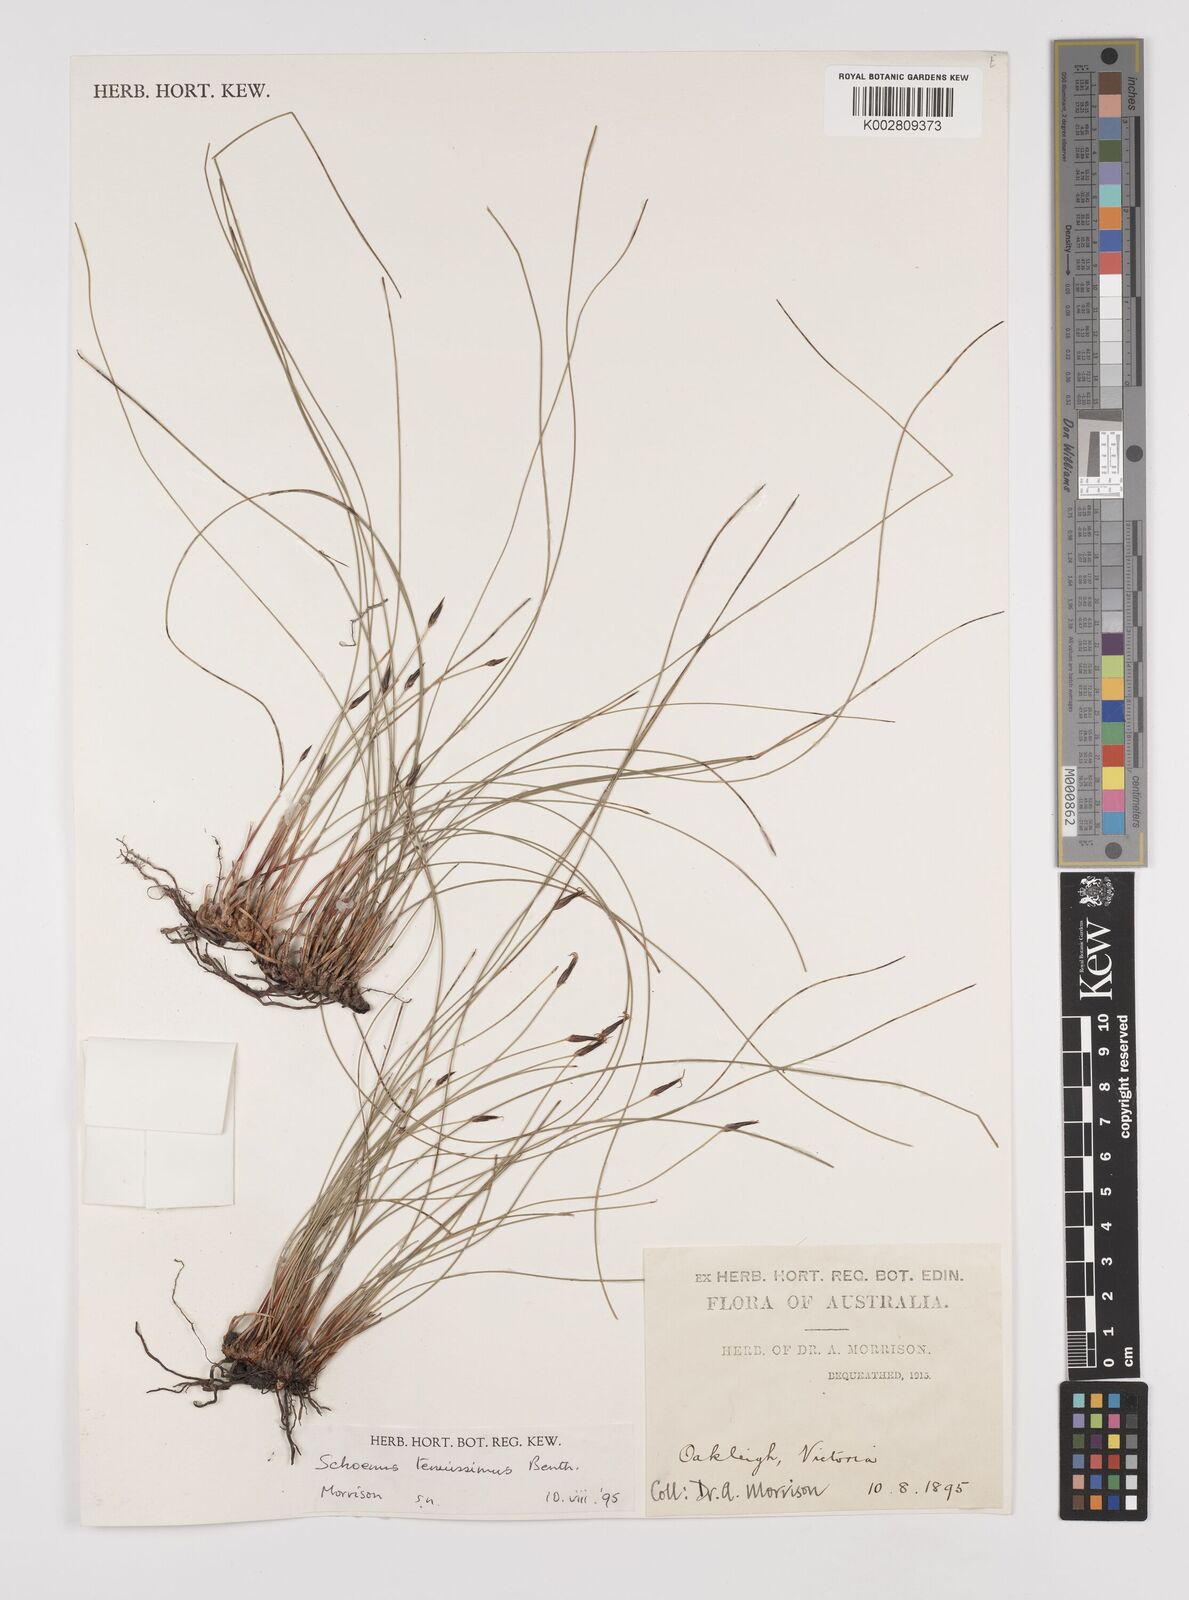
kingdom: Plantae
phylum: Tracheophyta
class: Liliopsida
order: Poales
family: Cyperaceae
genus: Schoenus
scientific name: Schoenus tenuissimus
